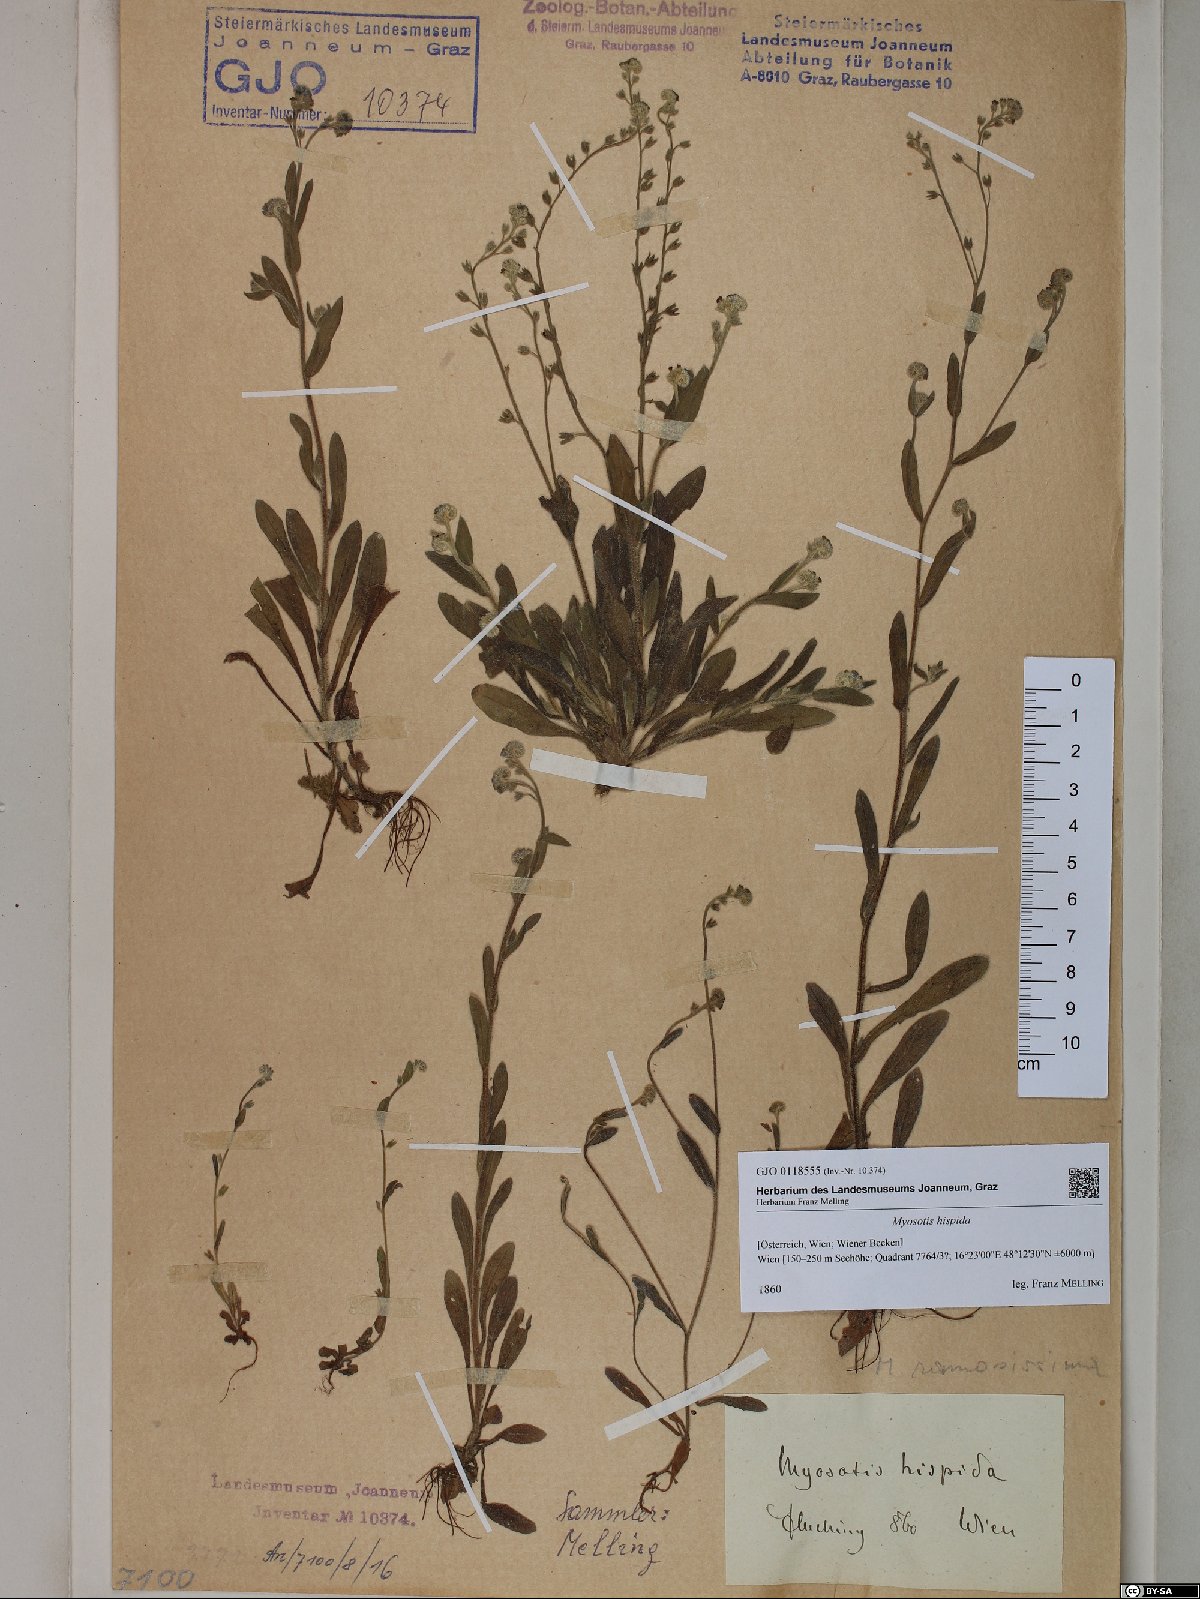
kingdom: Plantae
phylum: Tracheophyta
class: Magnoliopsida
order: Boraginales
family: Boraginaceae
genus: Myosotis
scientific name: Myosotis ramosissima
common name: Early forget-me-not
